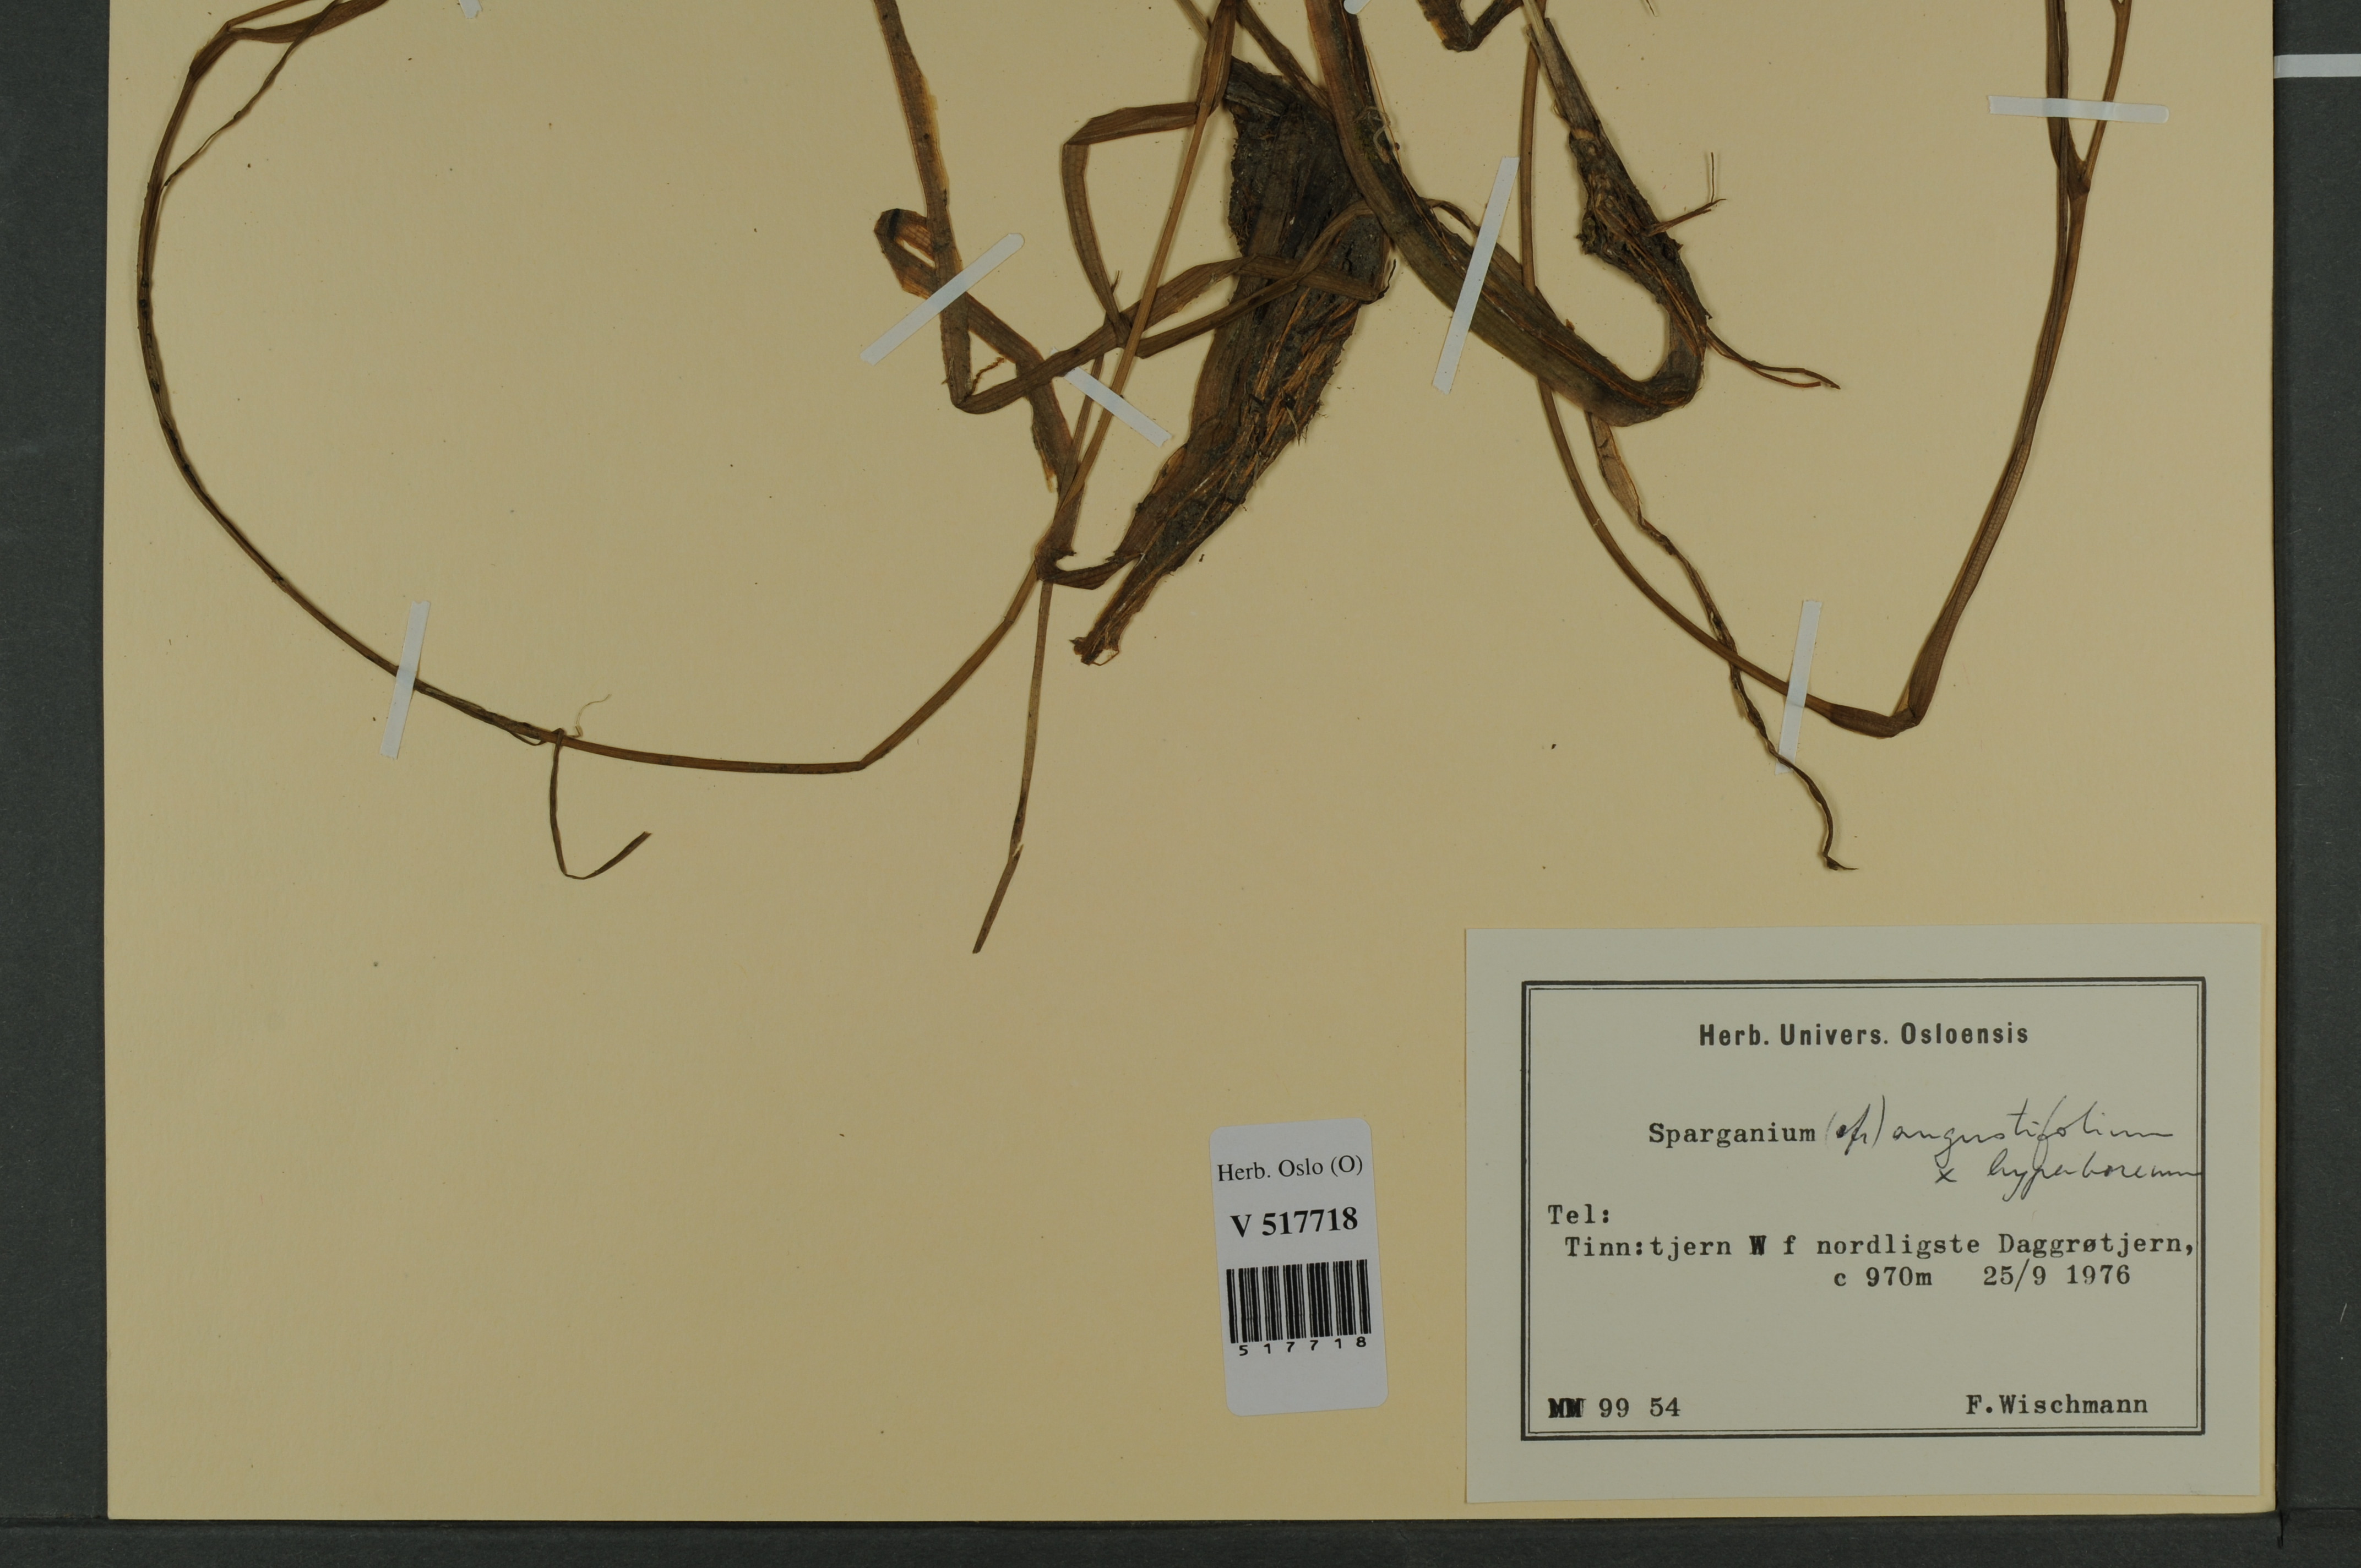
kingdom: Plantae
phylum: Tracheophyta
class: Liliopsida
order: Poales
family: Typhaceae
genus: Sparganium
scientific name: Sparganium
